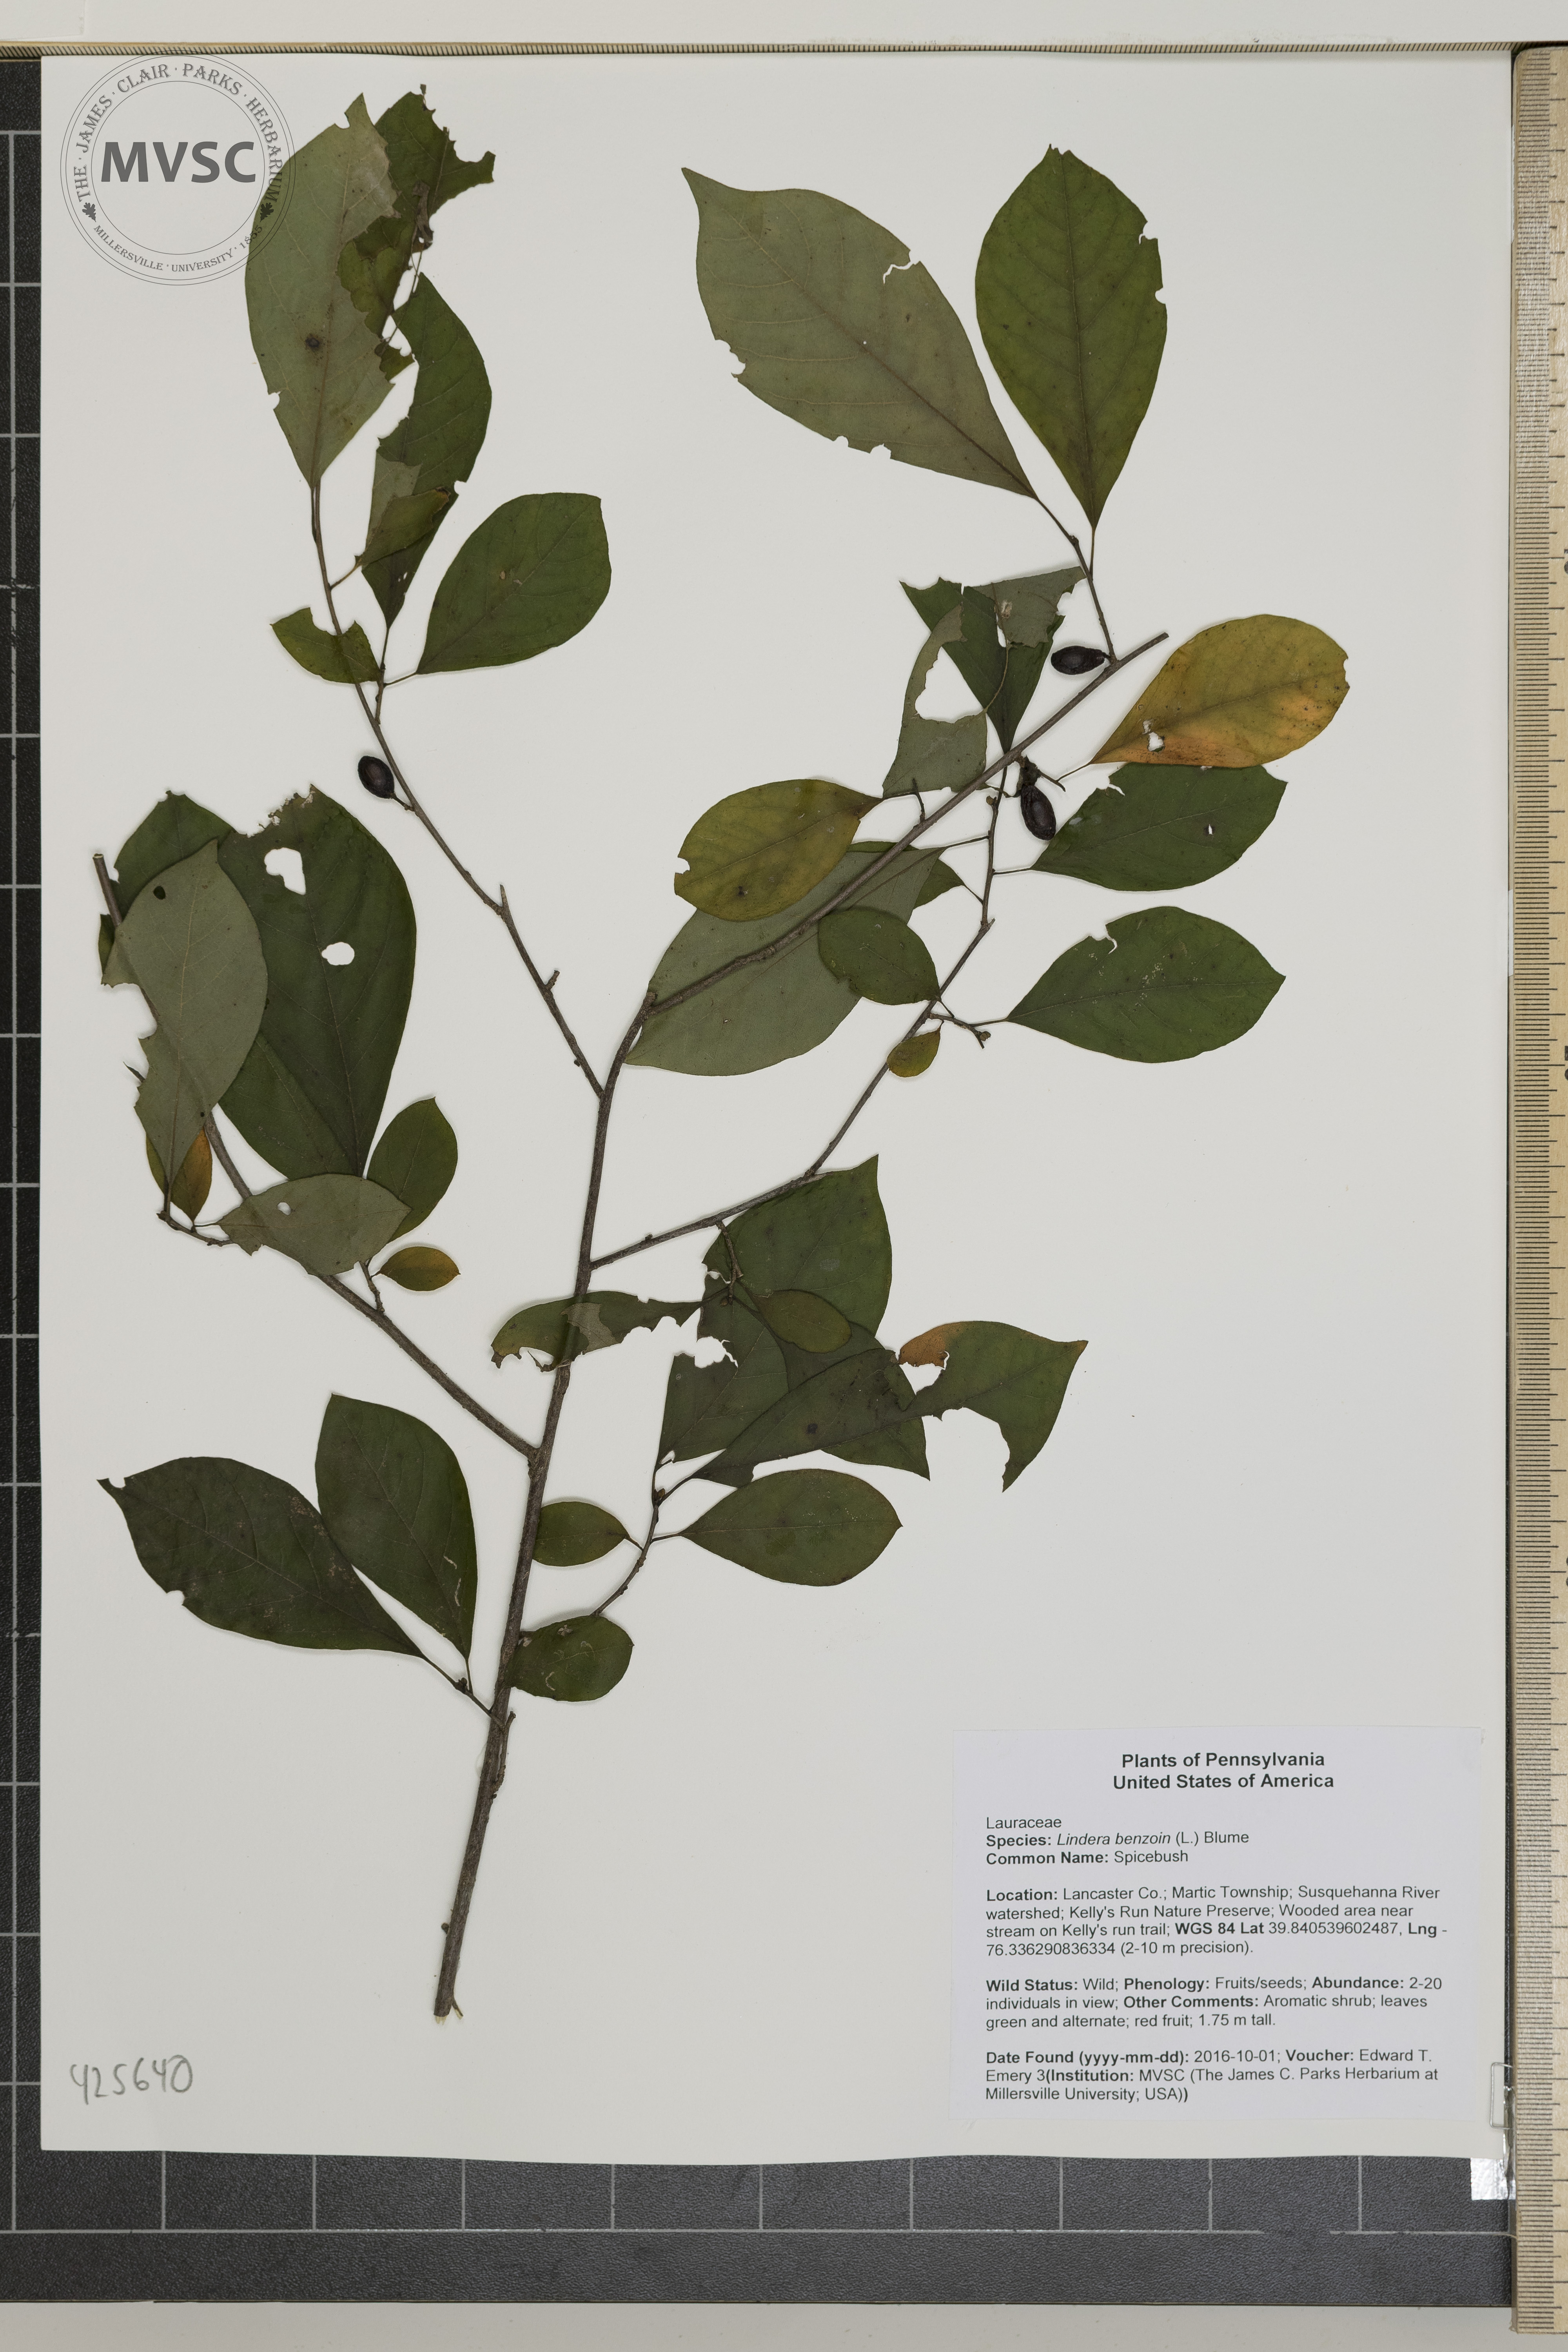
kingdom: Plantae
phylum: Tracheophyta
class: Magnoliopsida
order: Laurales
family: Lauraceae
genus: Lindera
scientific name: Lindera benzoin
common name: Spicebush
